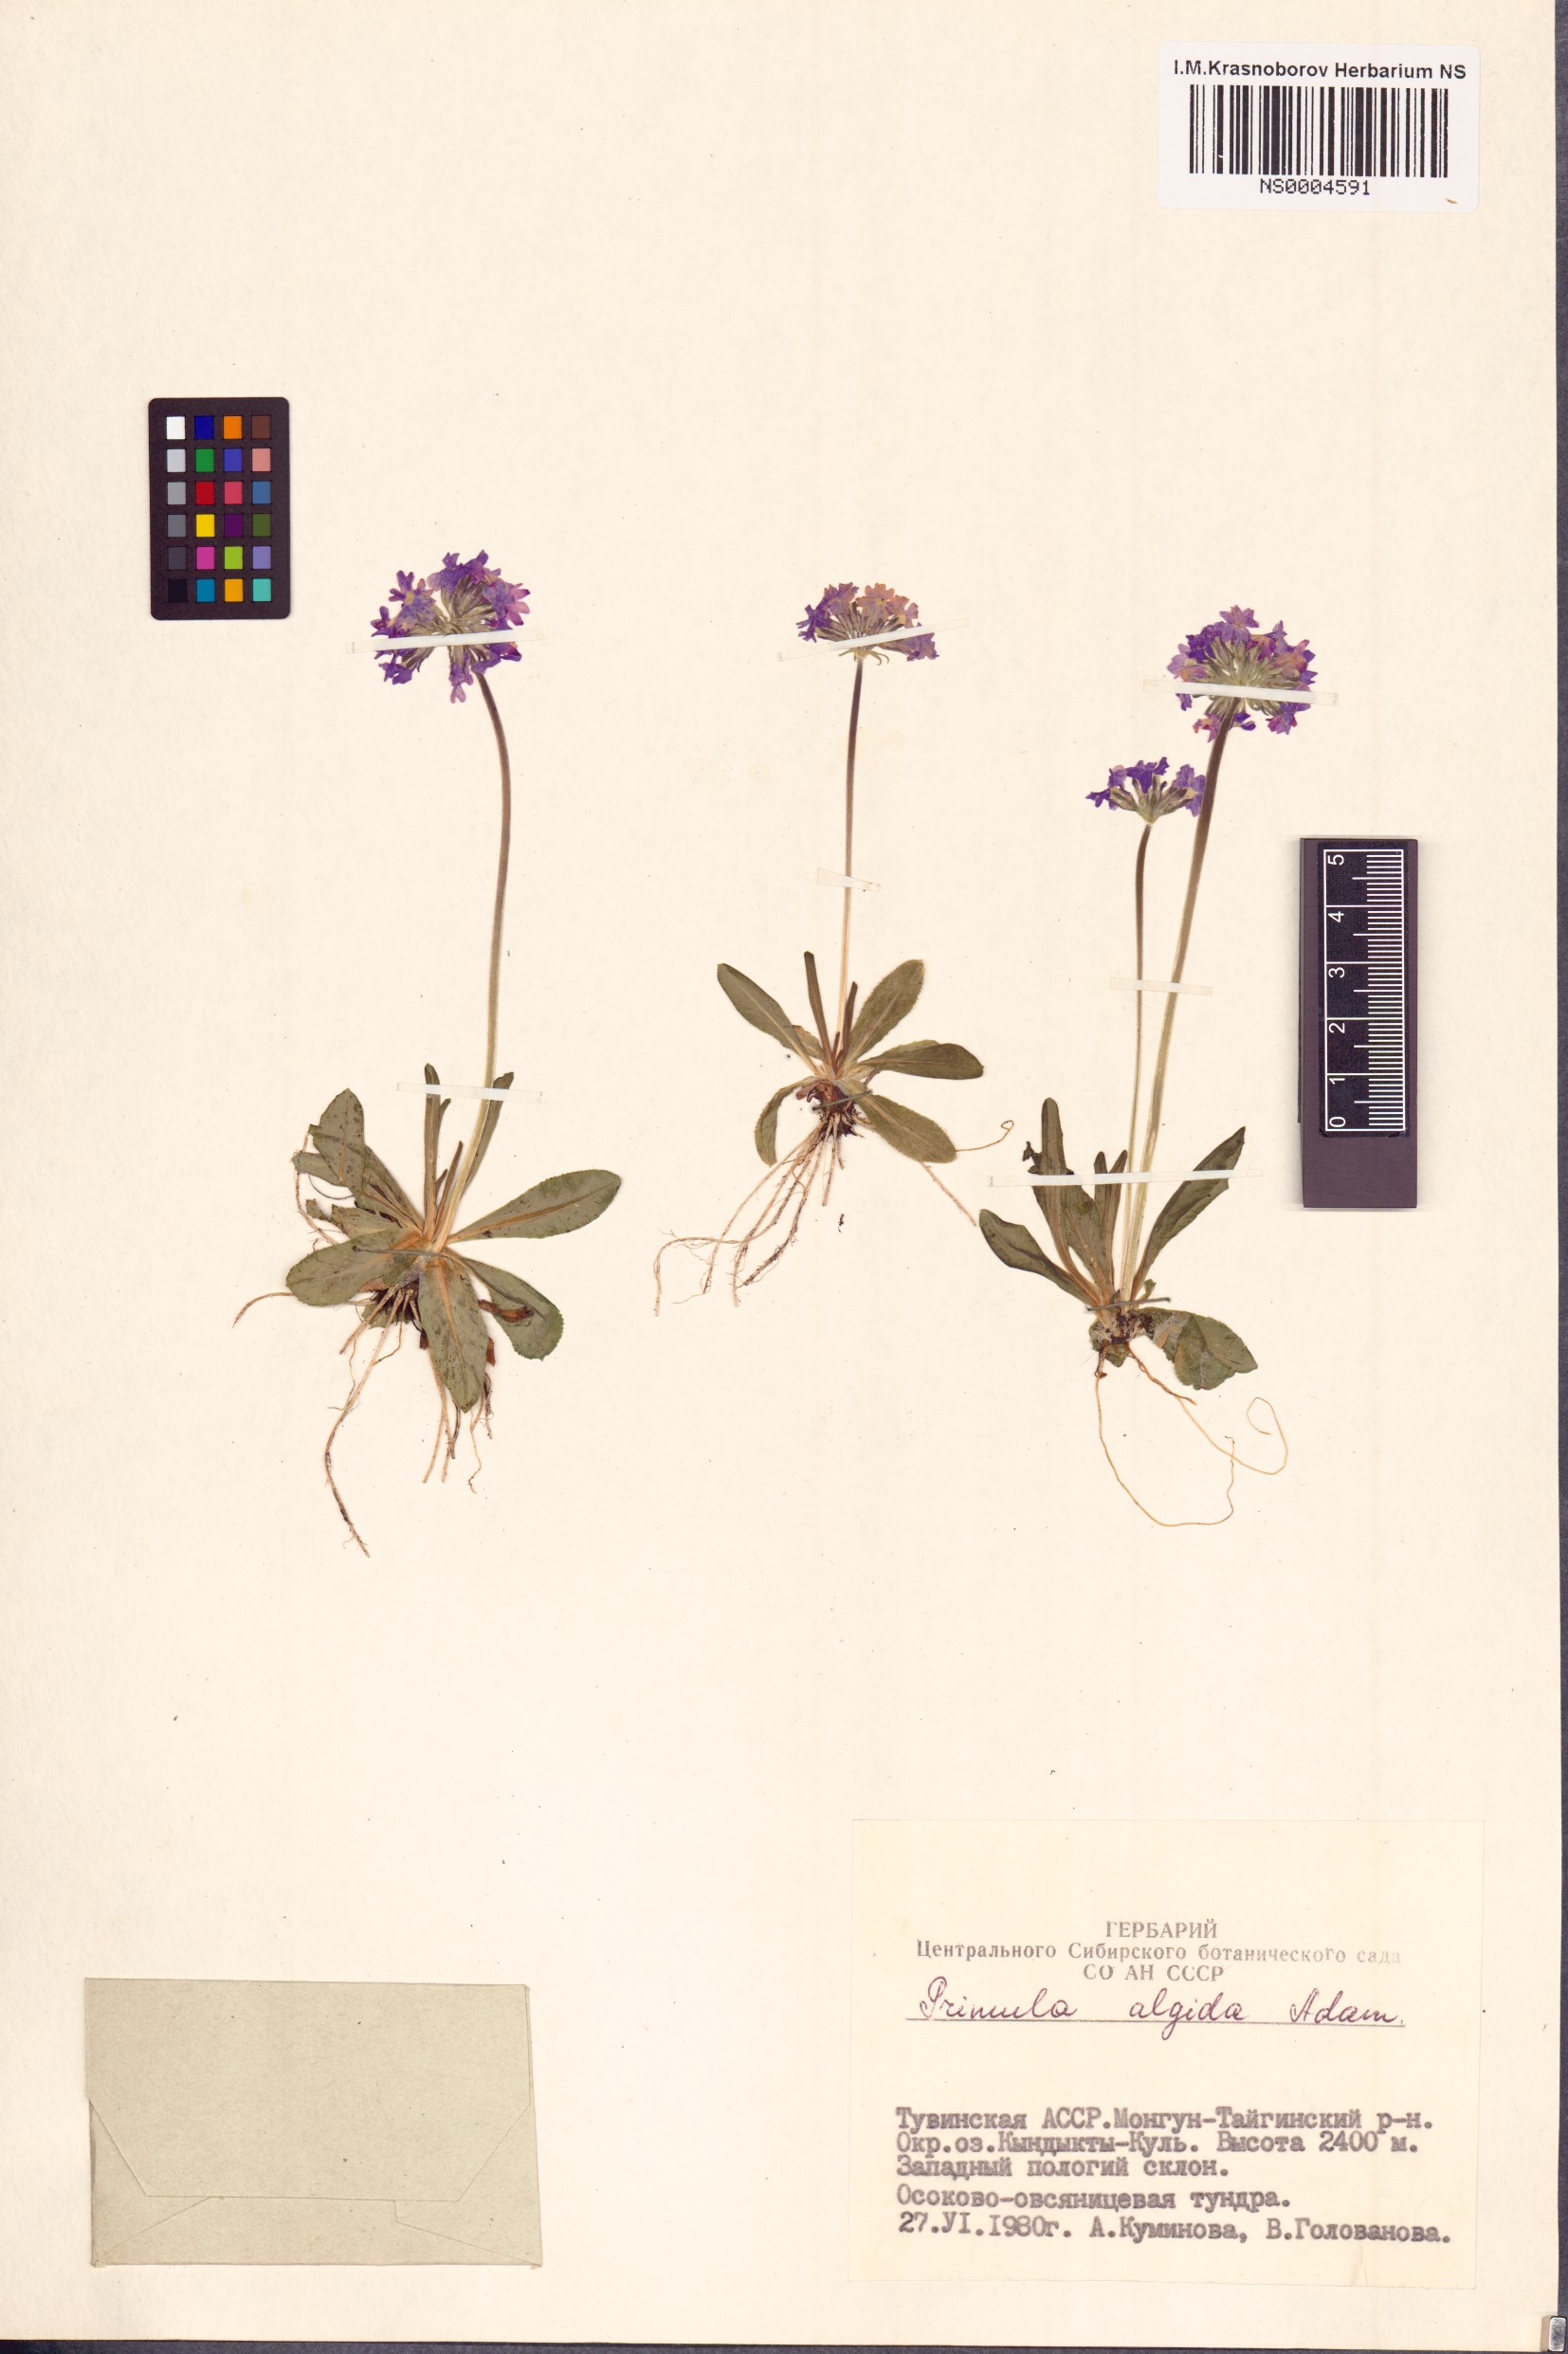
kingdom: Plantae
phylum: Tracheophyta
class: Magnoliopsida
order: Ericales
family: Primulaceae
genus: Primula
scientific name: Primula algida
